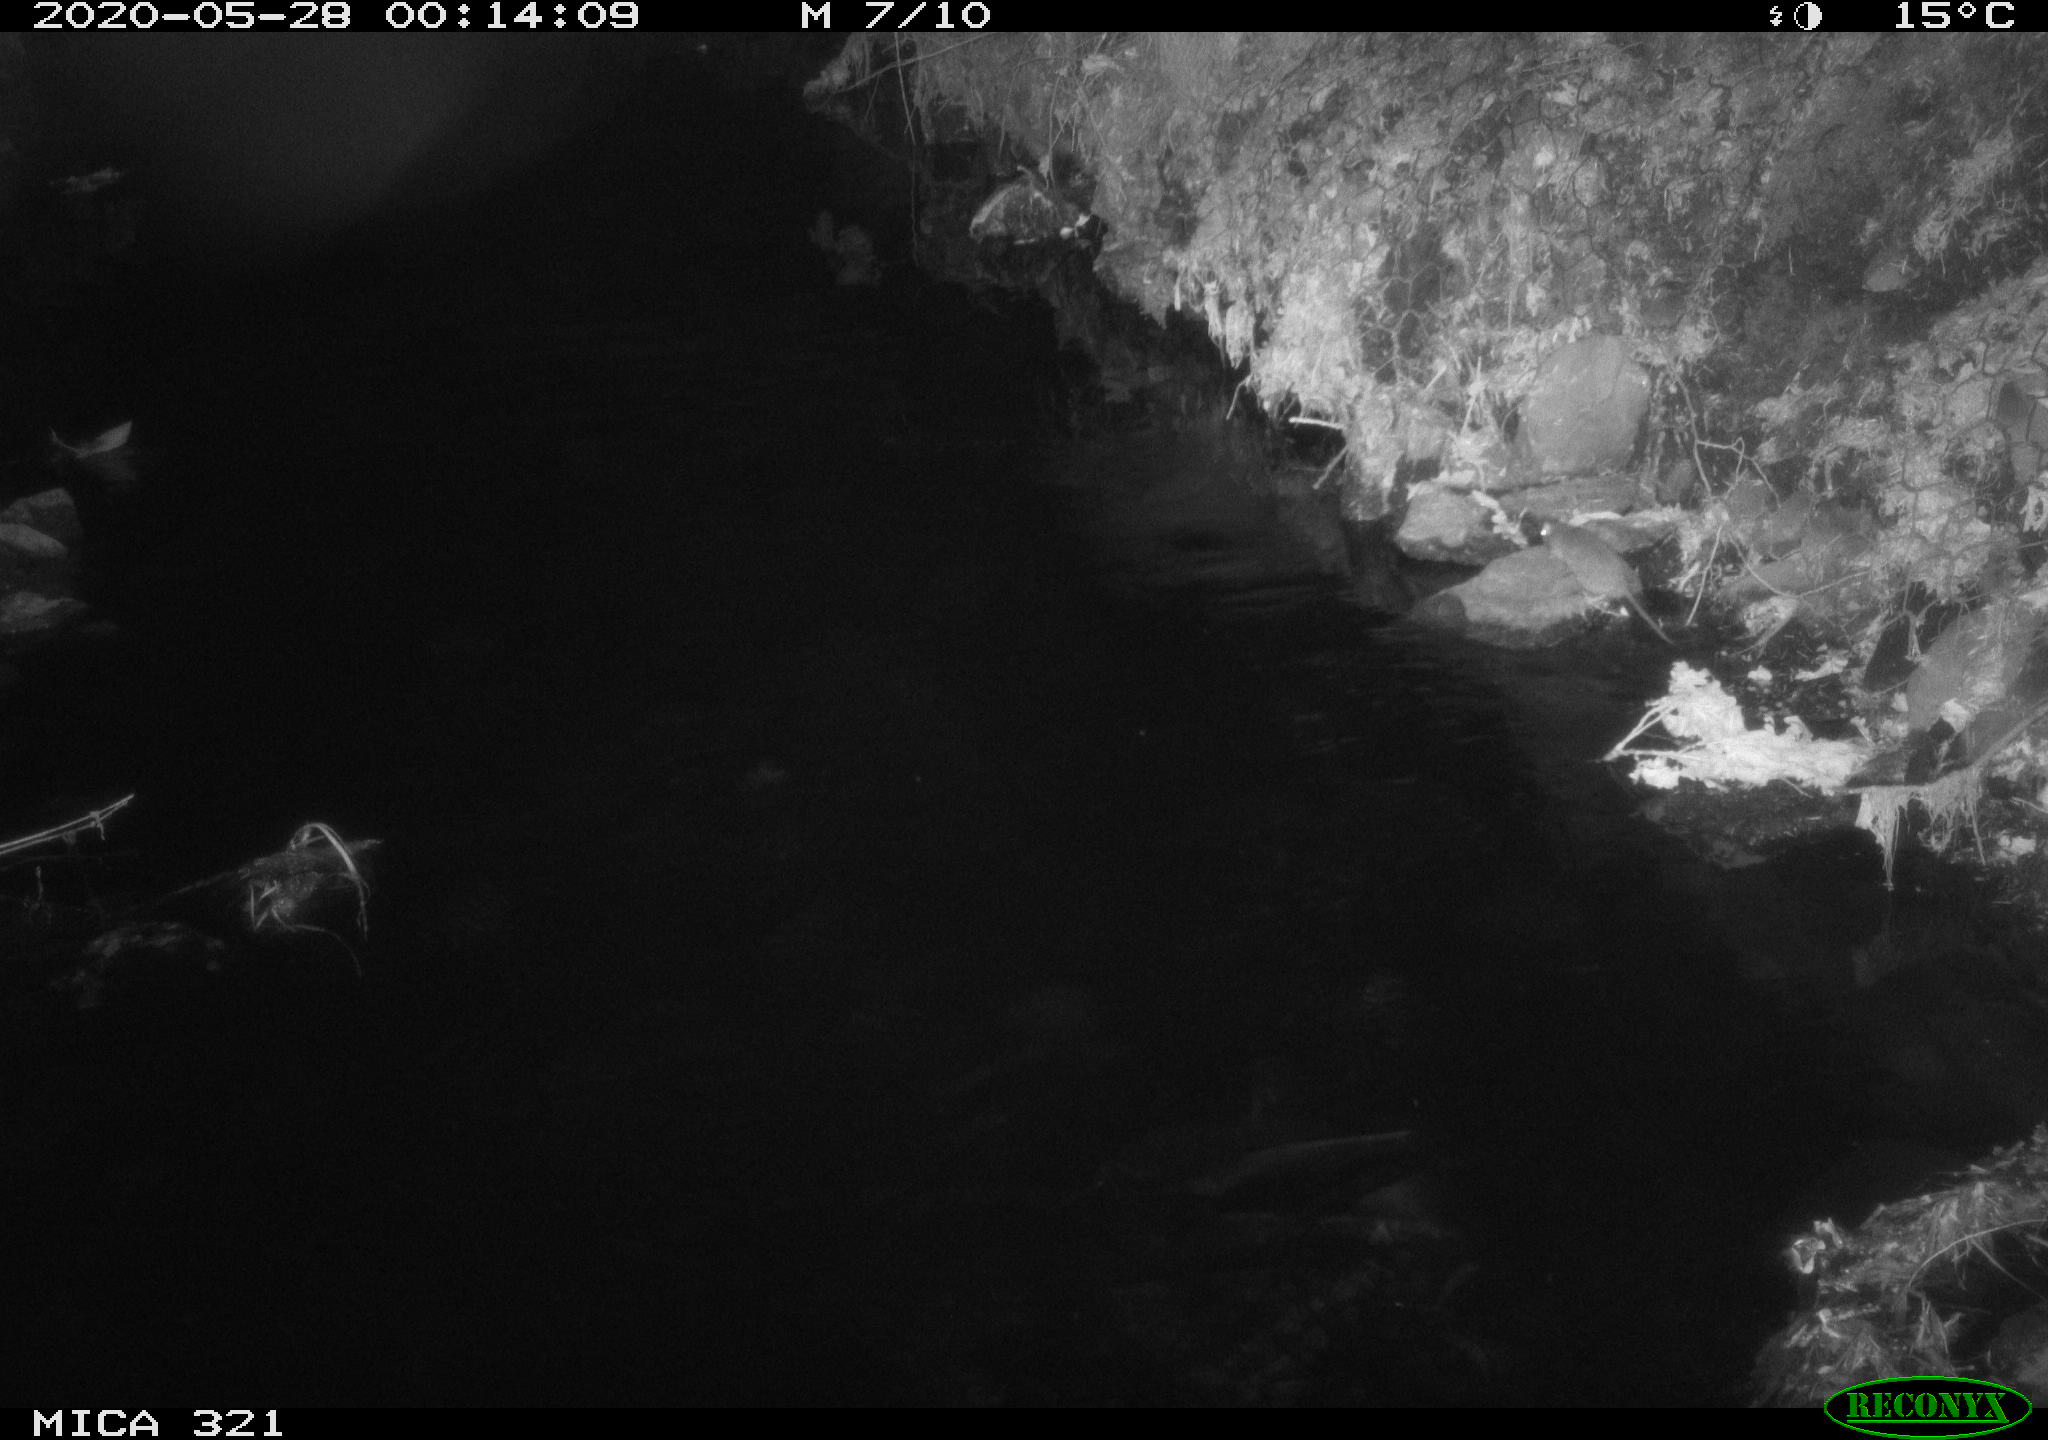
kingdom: Animalia
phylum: Chordata
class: Mammalia
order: Rodentia
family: Muridae
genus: Rattus
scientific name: Rattus norvegicus
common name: Brown rat
